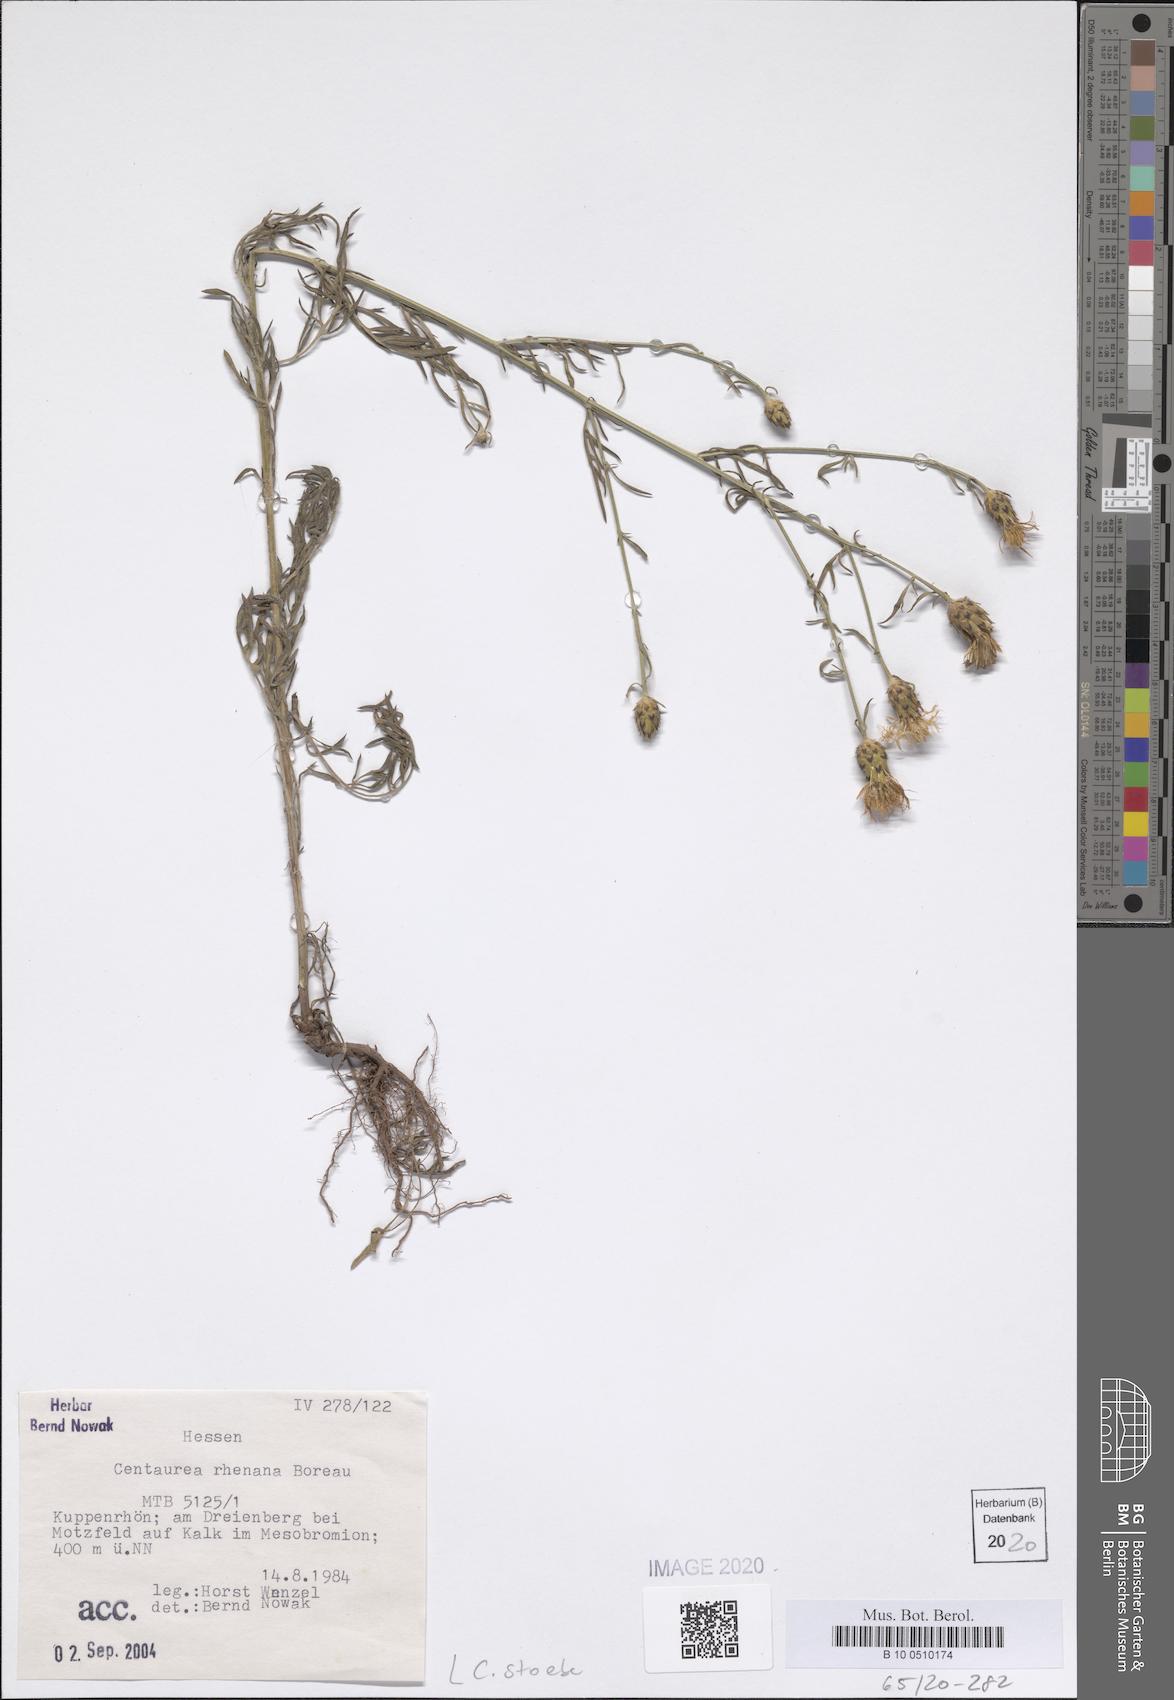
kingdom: Plantae
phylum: Tracheophyta
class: Magnoliopsida
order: Asterales
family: Asteraceae
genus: Centaurea
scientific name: Centaurea stoebe
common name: Spotted knapweed
